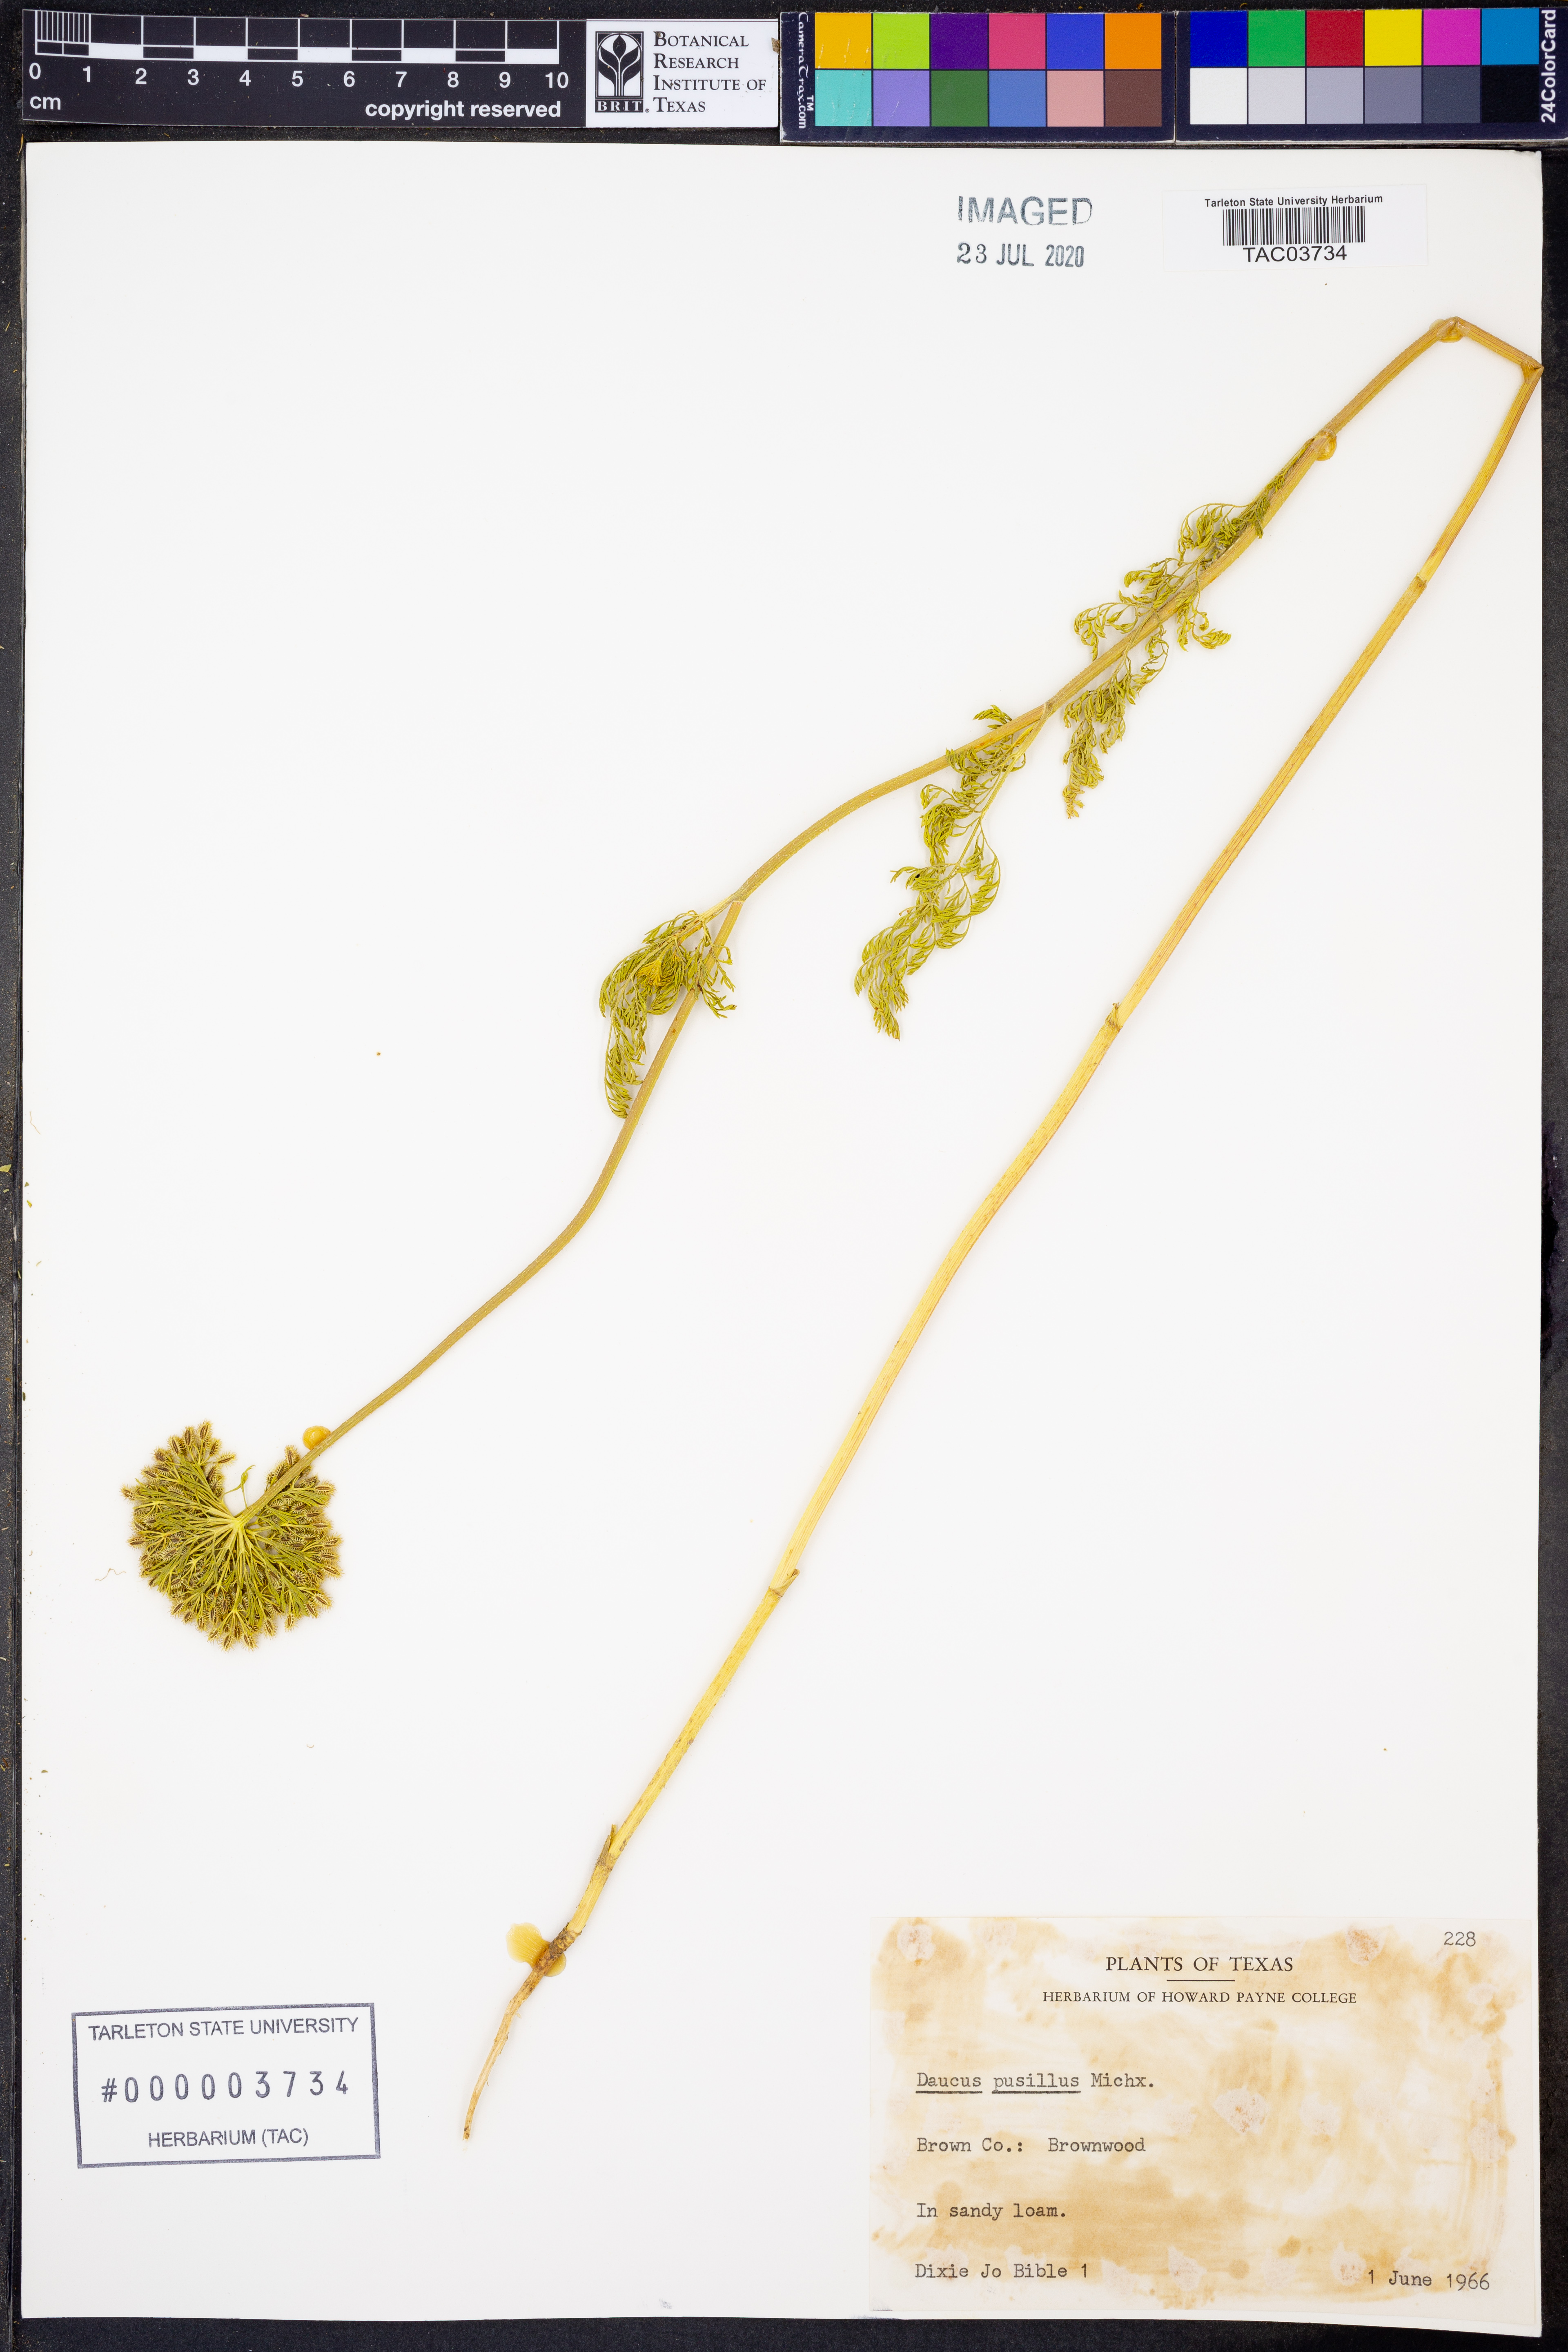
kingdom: Plantae
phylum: Tracheophyta
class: Magnoliopsida
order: Apiales
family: Apiaceae
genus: Daucus
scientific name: Daucus pusillus
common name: Southwest wild carrot
